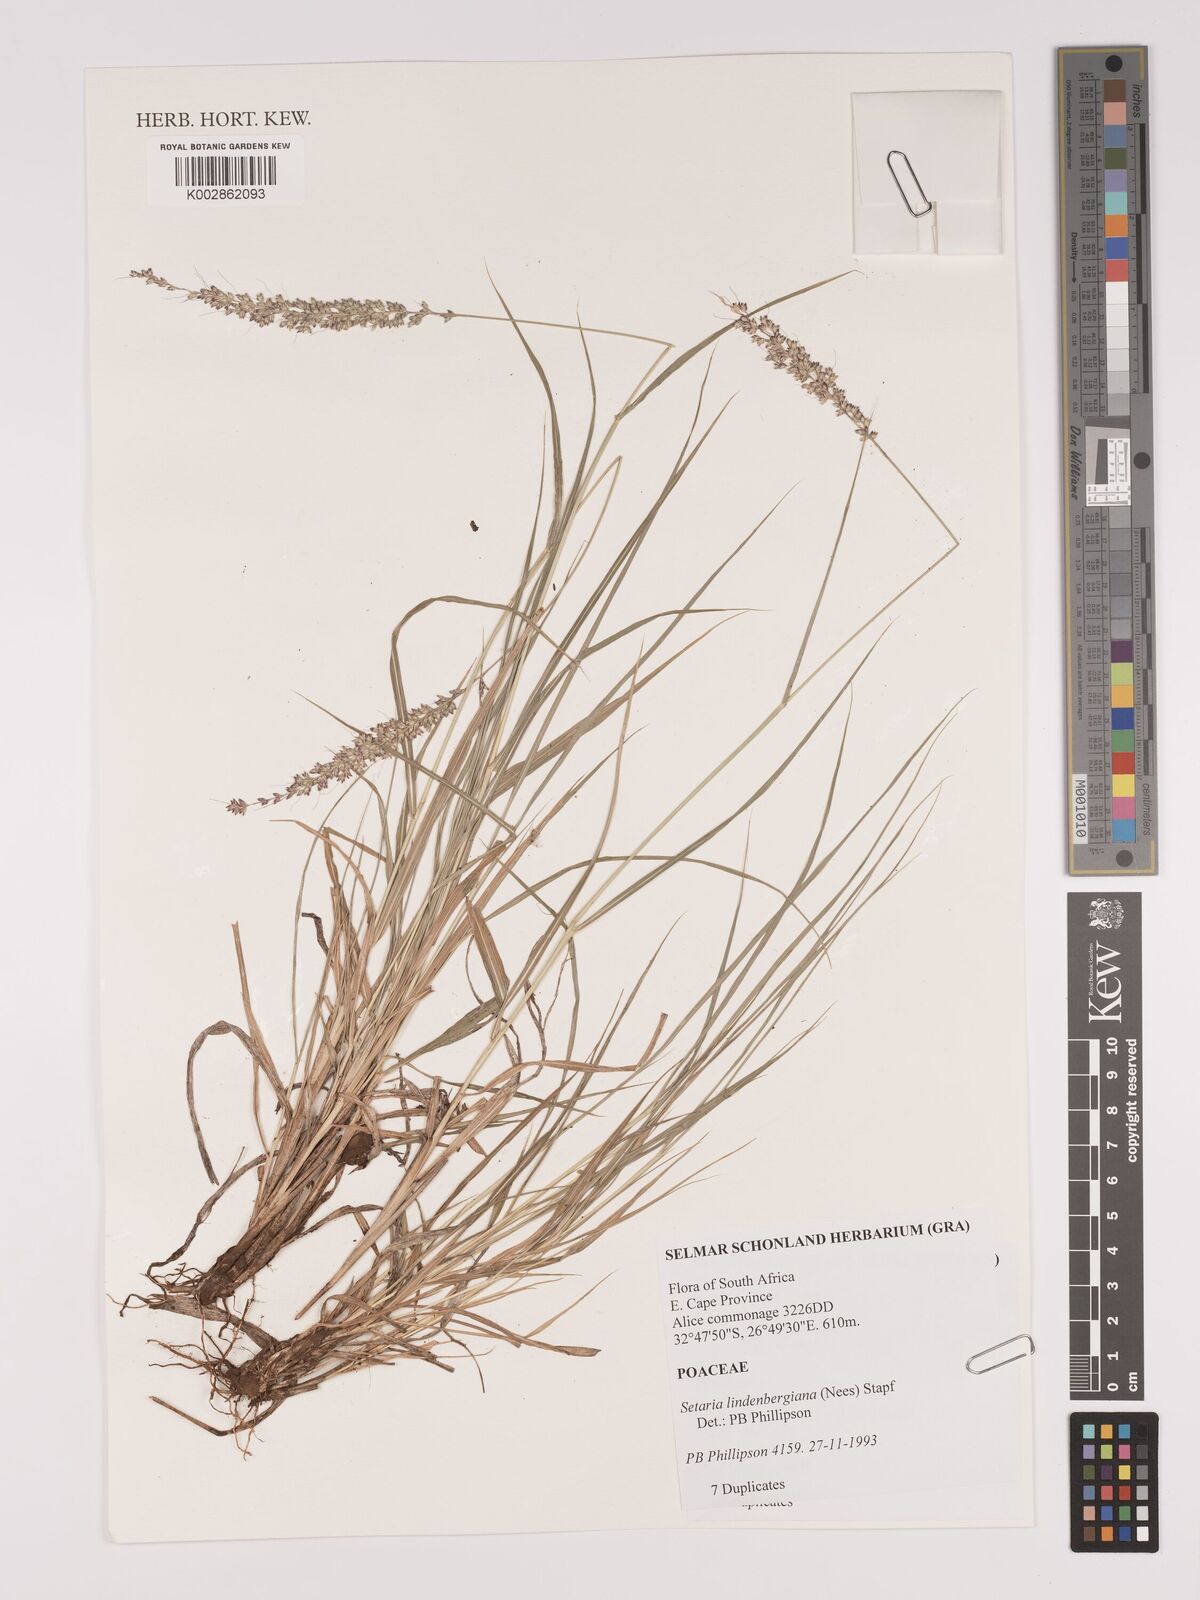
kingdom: Plantae
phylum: Tracheophyta
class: Liliopsida
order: Poales
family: Poaceae
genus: Setaria
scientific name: Setaria lindenbergiana
